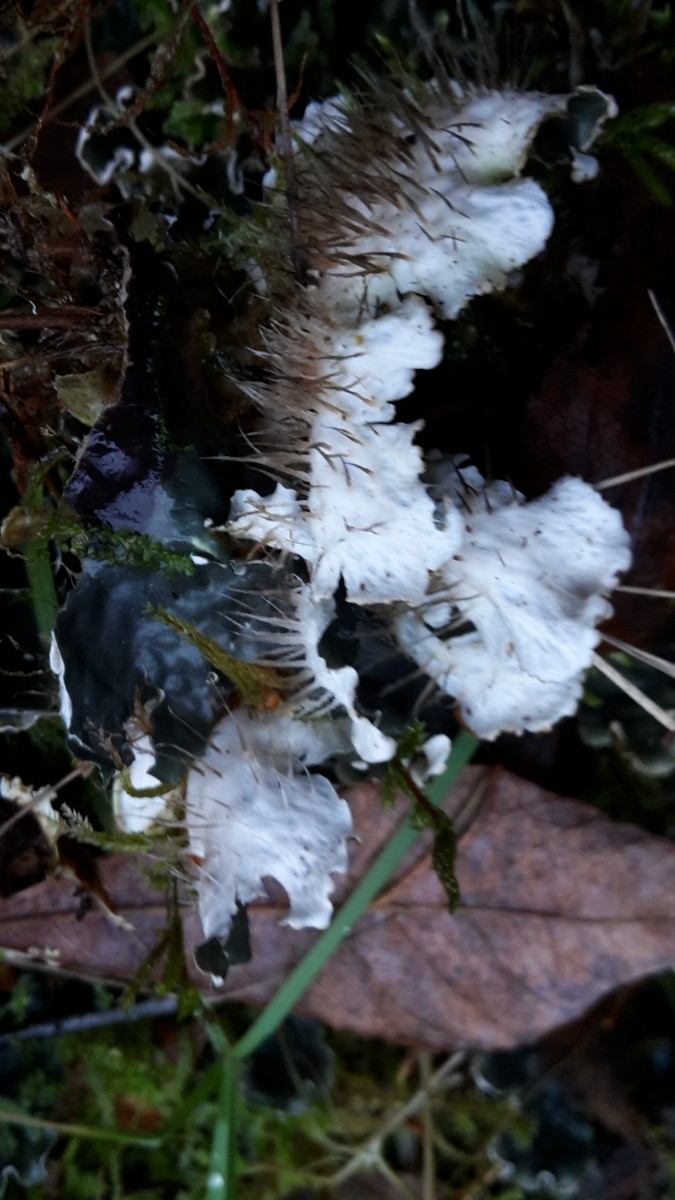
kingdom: Fungi
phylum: Ascomycota
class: Lecanoromycetes
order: Peltigerales
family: Peltigeraceae
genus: Peltigera
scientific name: Peltigera membranacea
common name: tynd skjoldlav
